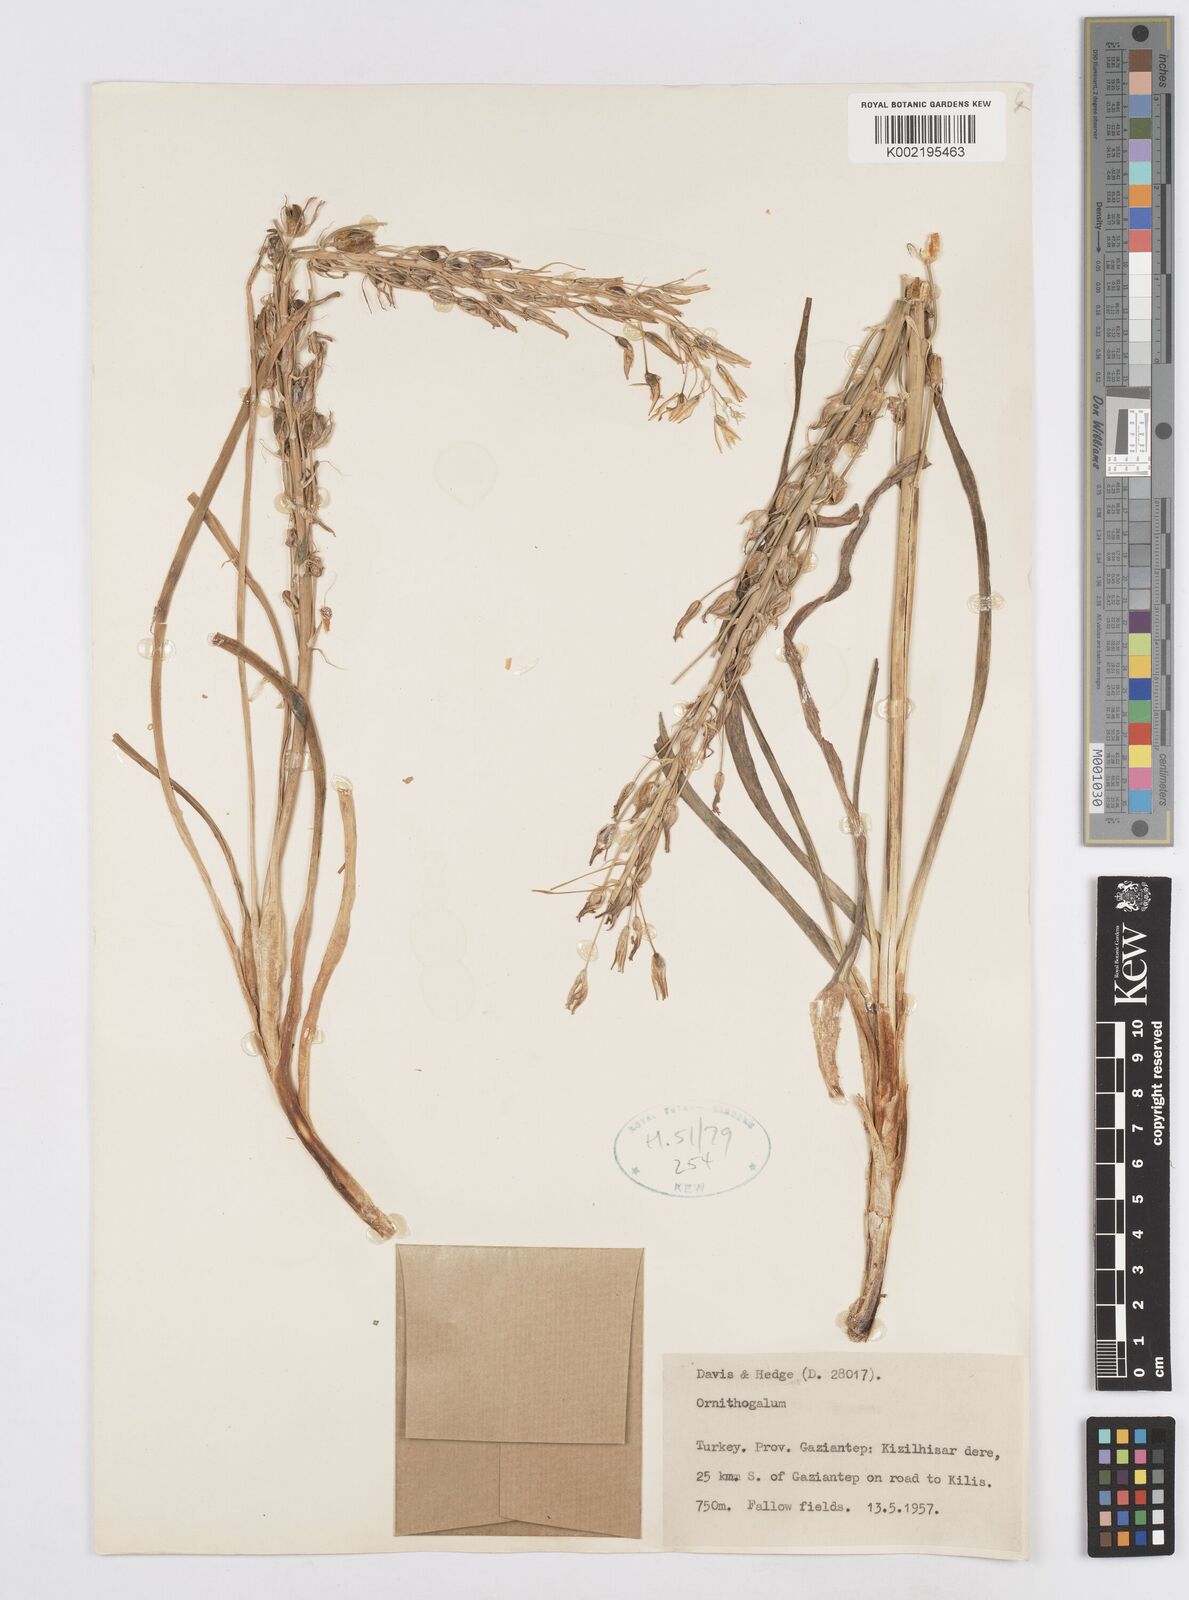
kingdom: Plantae
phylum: Tracheophyta
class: Liliopsida
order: Asparagales
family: Asparagaceae
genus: Ornithogalum
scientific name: Ornithogalum
